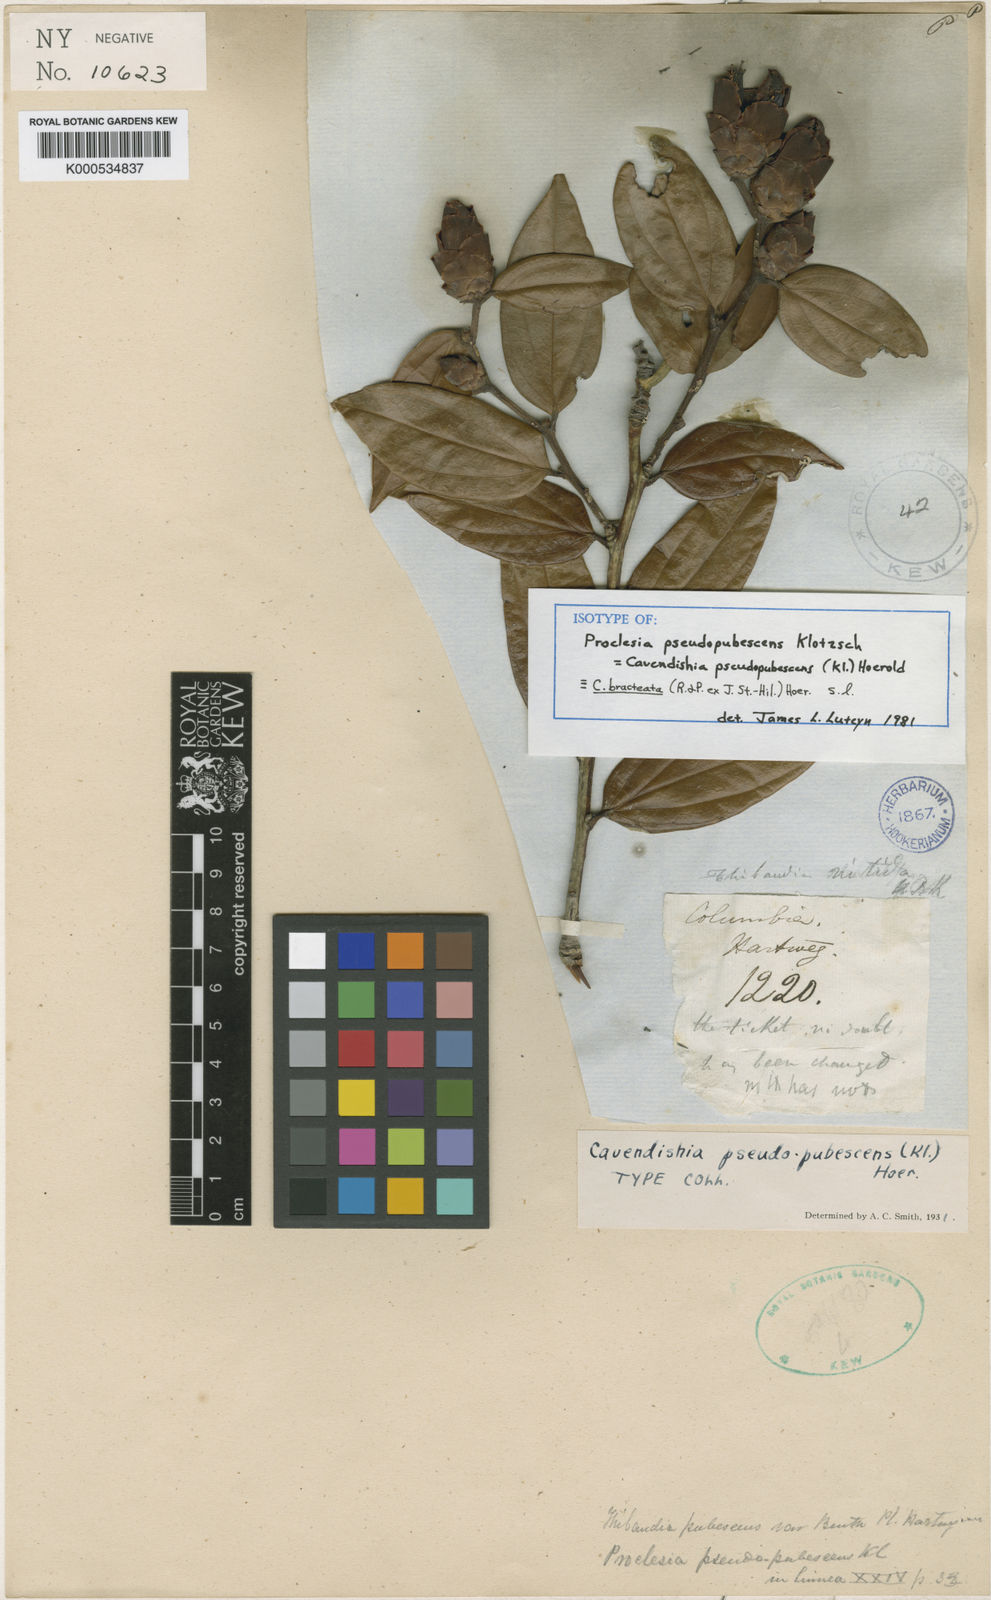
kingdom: Plantae
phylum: Tracheophyta
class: Magnoliopsida
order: Ericales
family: Ericaceae
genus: Cavendishia
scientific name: Cavendishia bracteata
